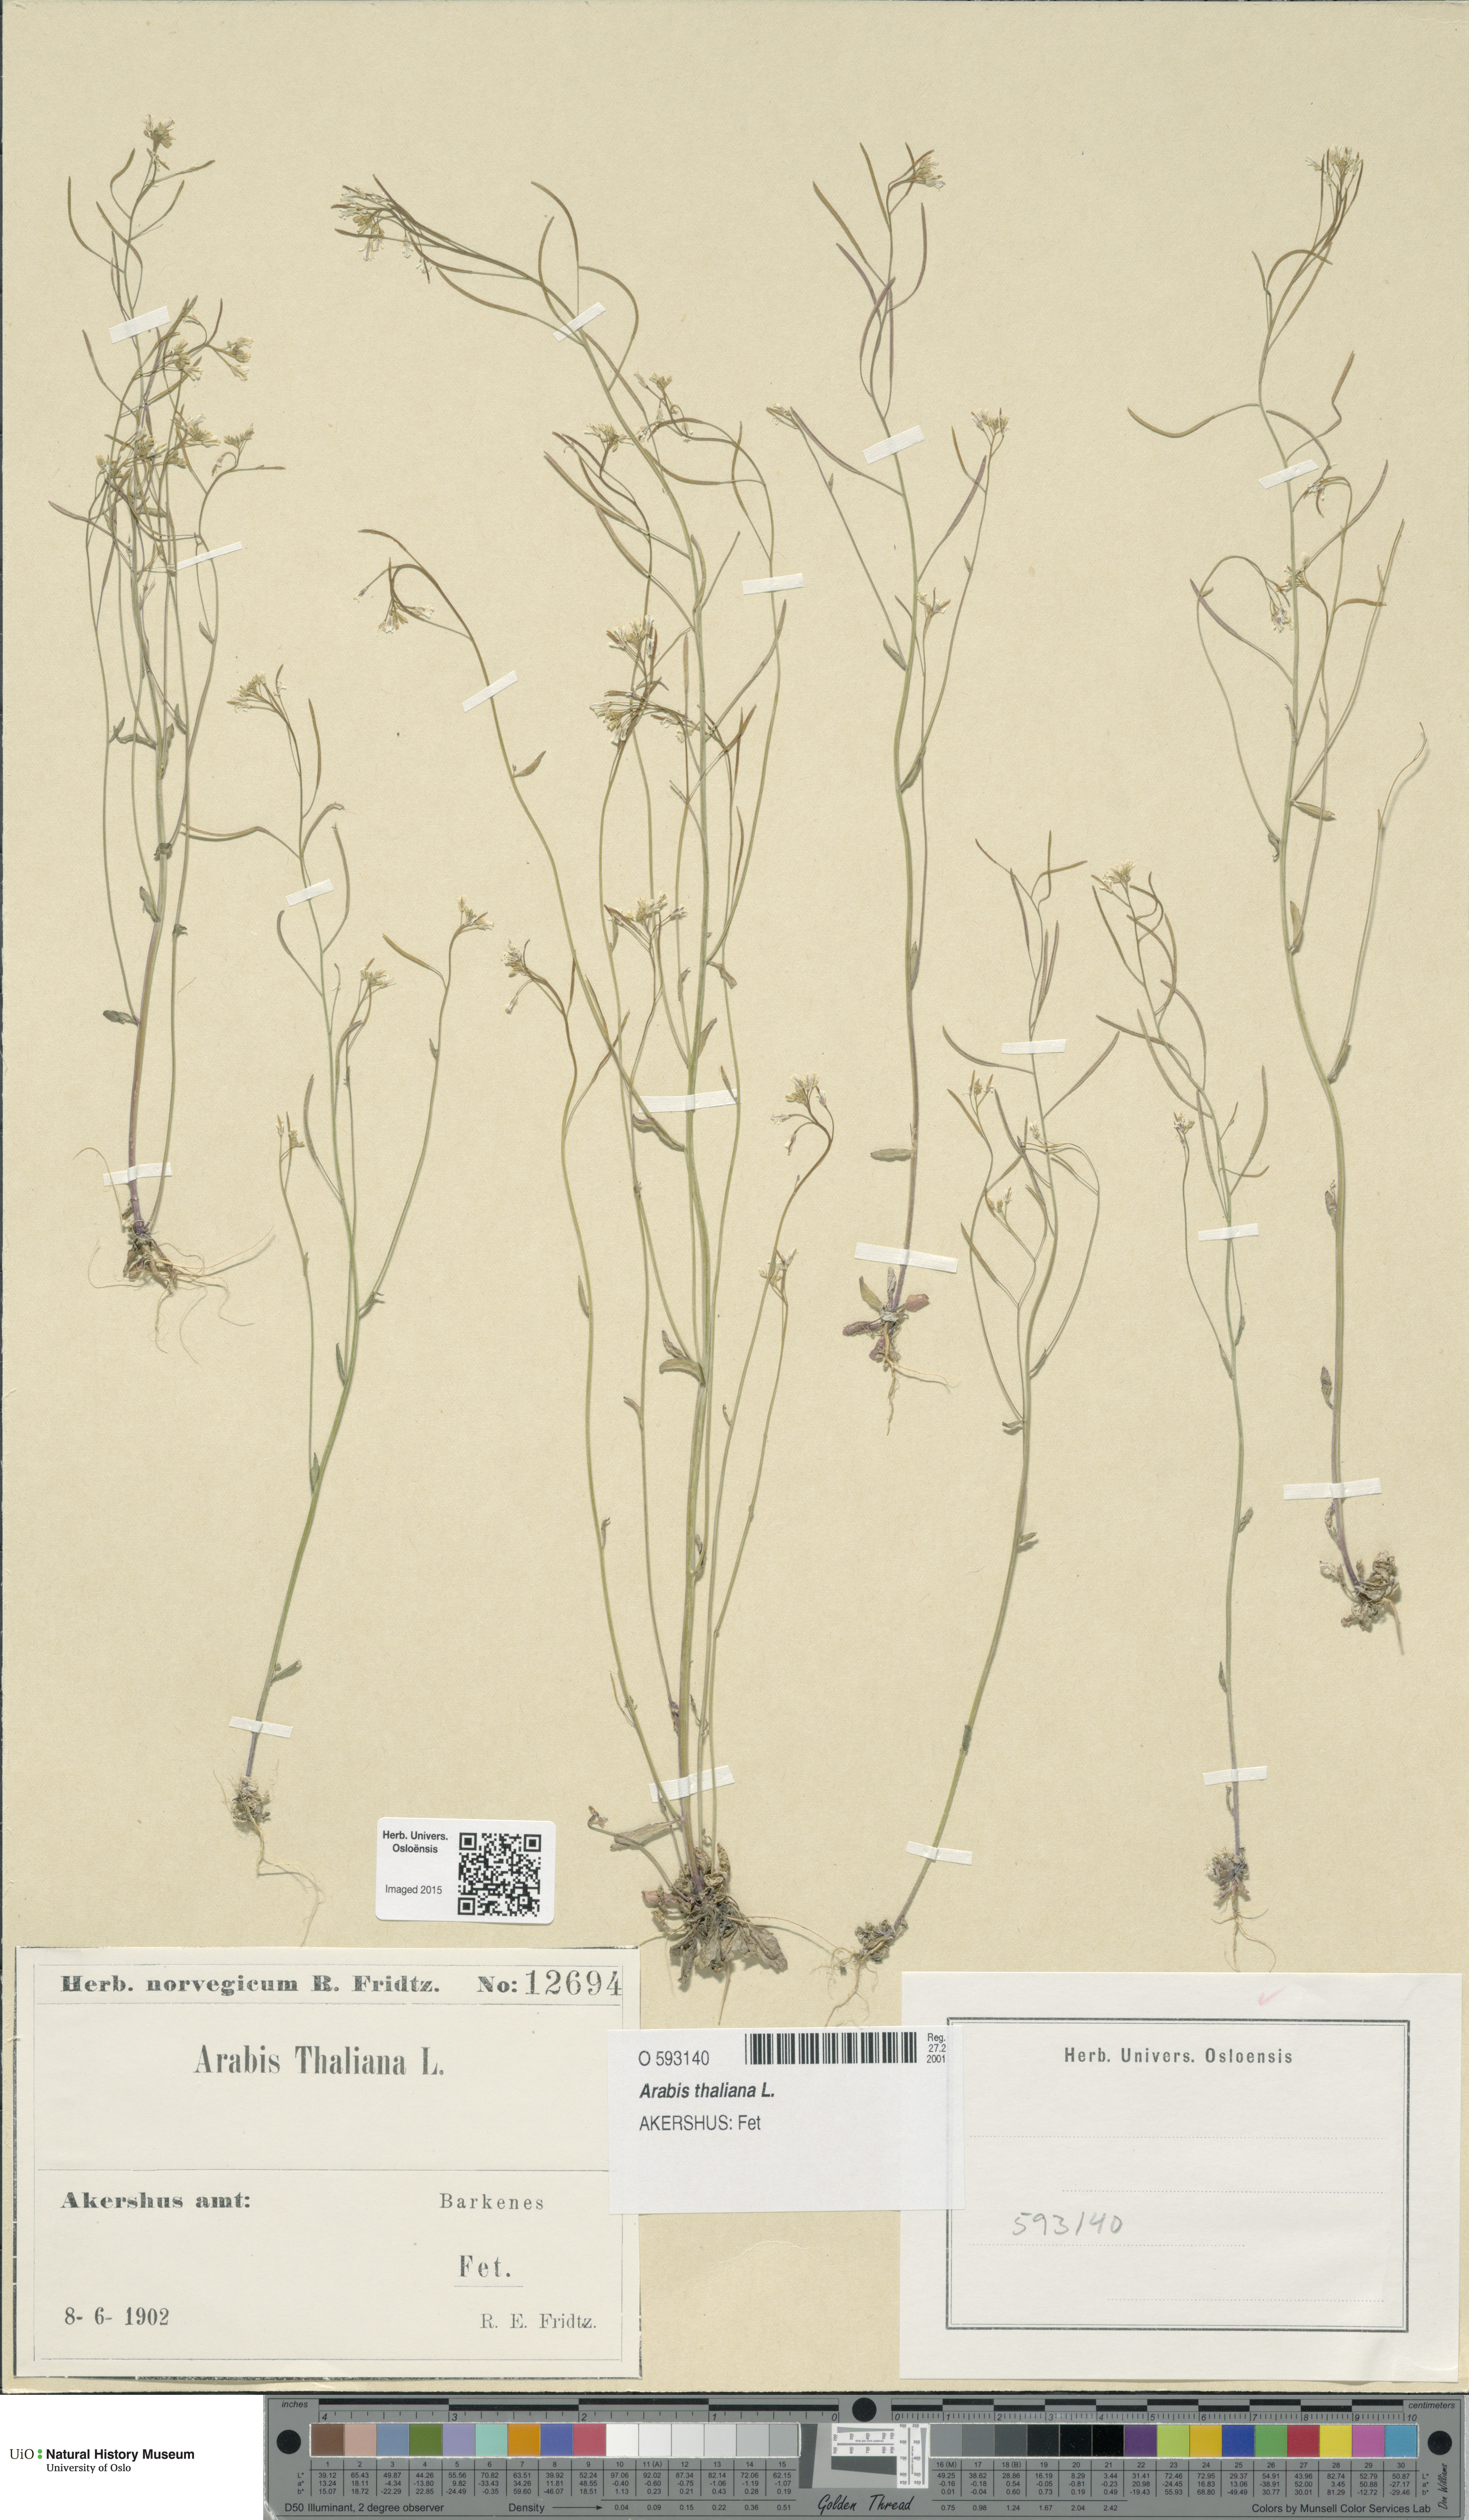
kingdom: Plantae
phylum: Tracheophyta
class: Magnoliopsida
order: Brassicales
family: Brassicaceae
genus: Arabidopsis
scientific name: Arabidopsis thaliana
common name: Thale cress
